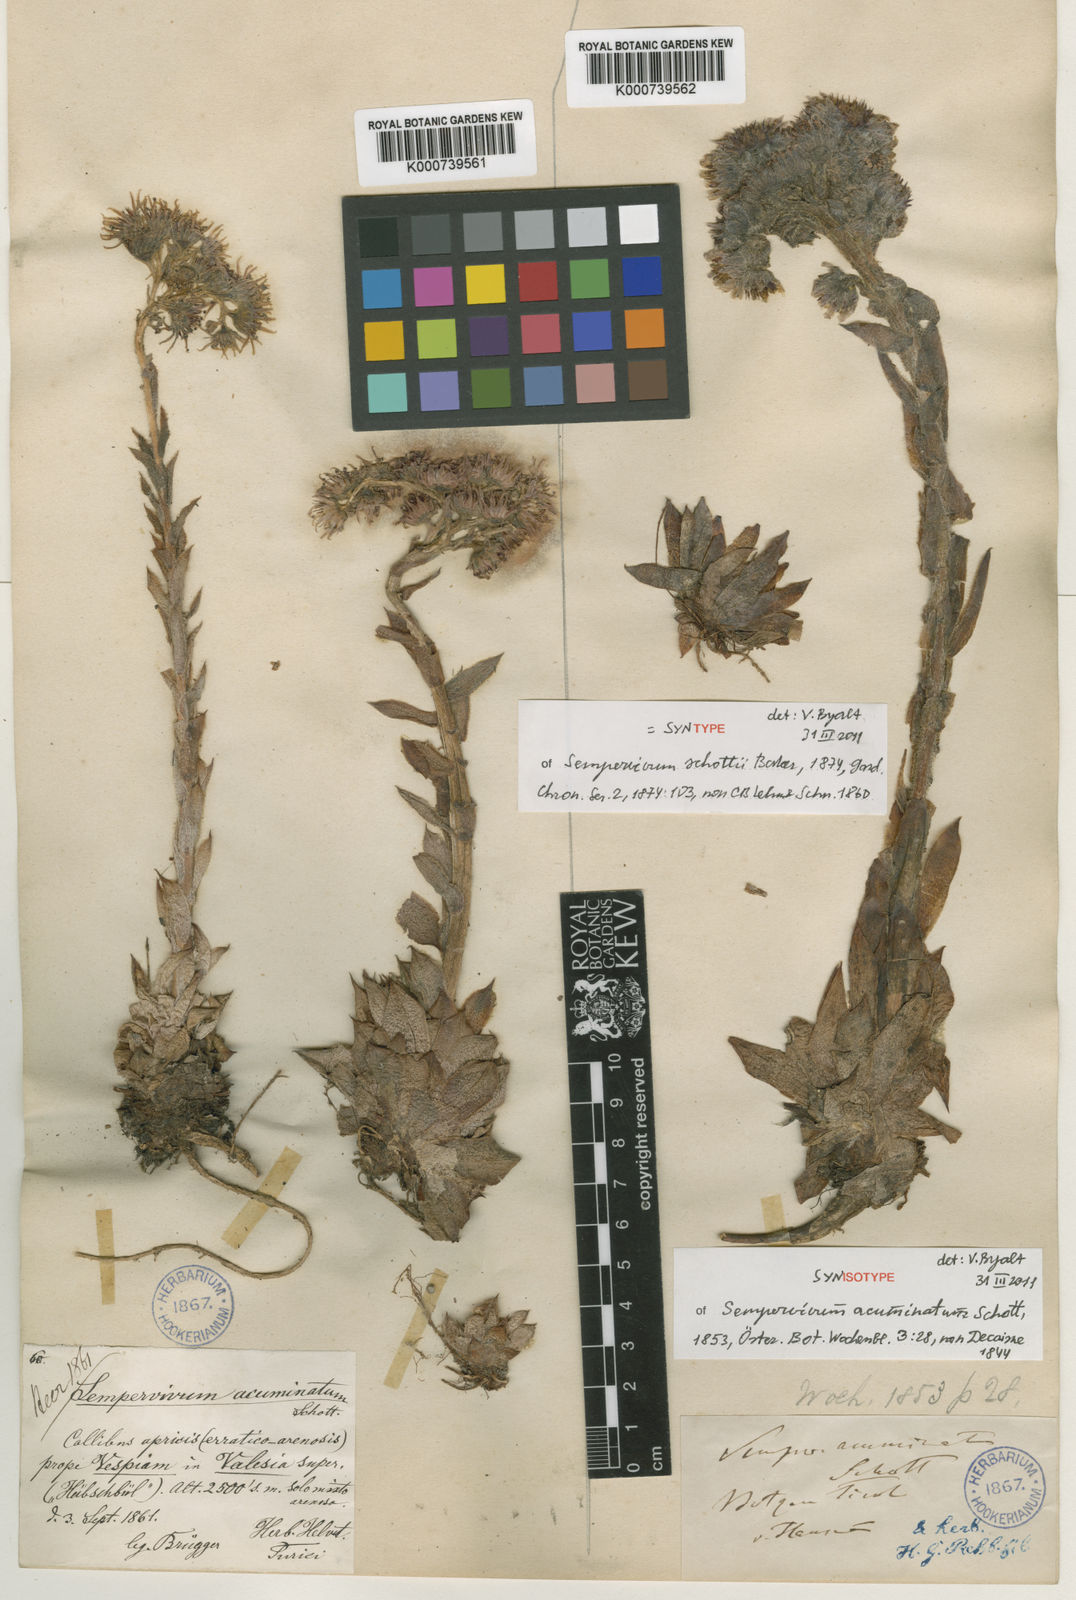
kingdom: Plantae
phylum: Tracheophyta
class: Magnoliopsida
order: Saxifragales
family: Crassulaceae
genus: Sempervivum
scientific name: Sempervivum tectorum
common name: House-leek
